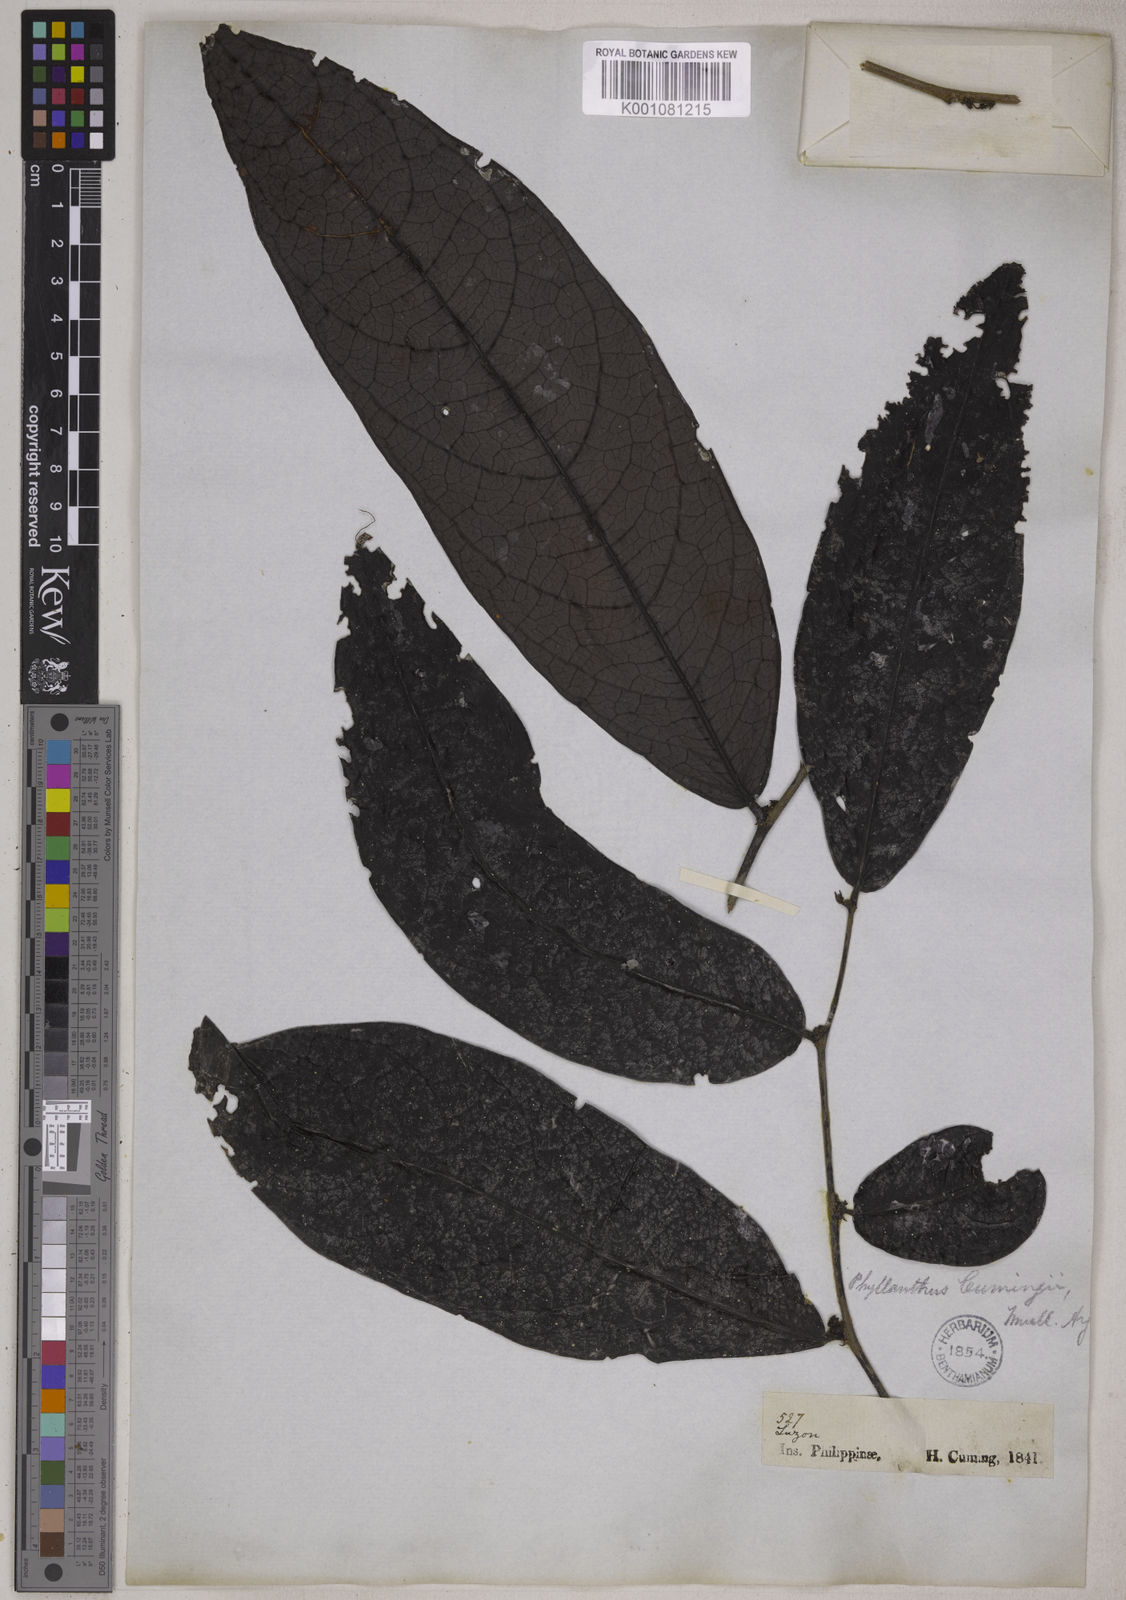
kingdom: Plantae
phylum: Tracheophyta
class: Magnoliopsida
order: Malpighiales
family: Phyllanthaceae
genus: Glochidion
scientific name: Glochidion album
